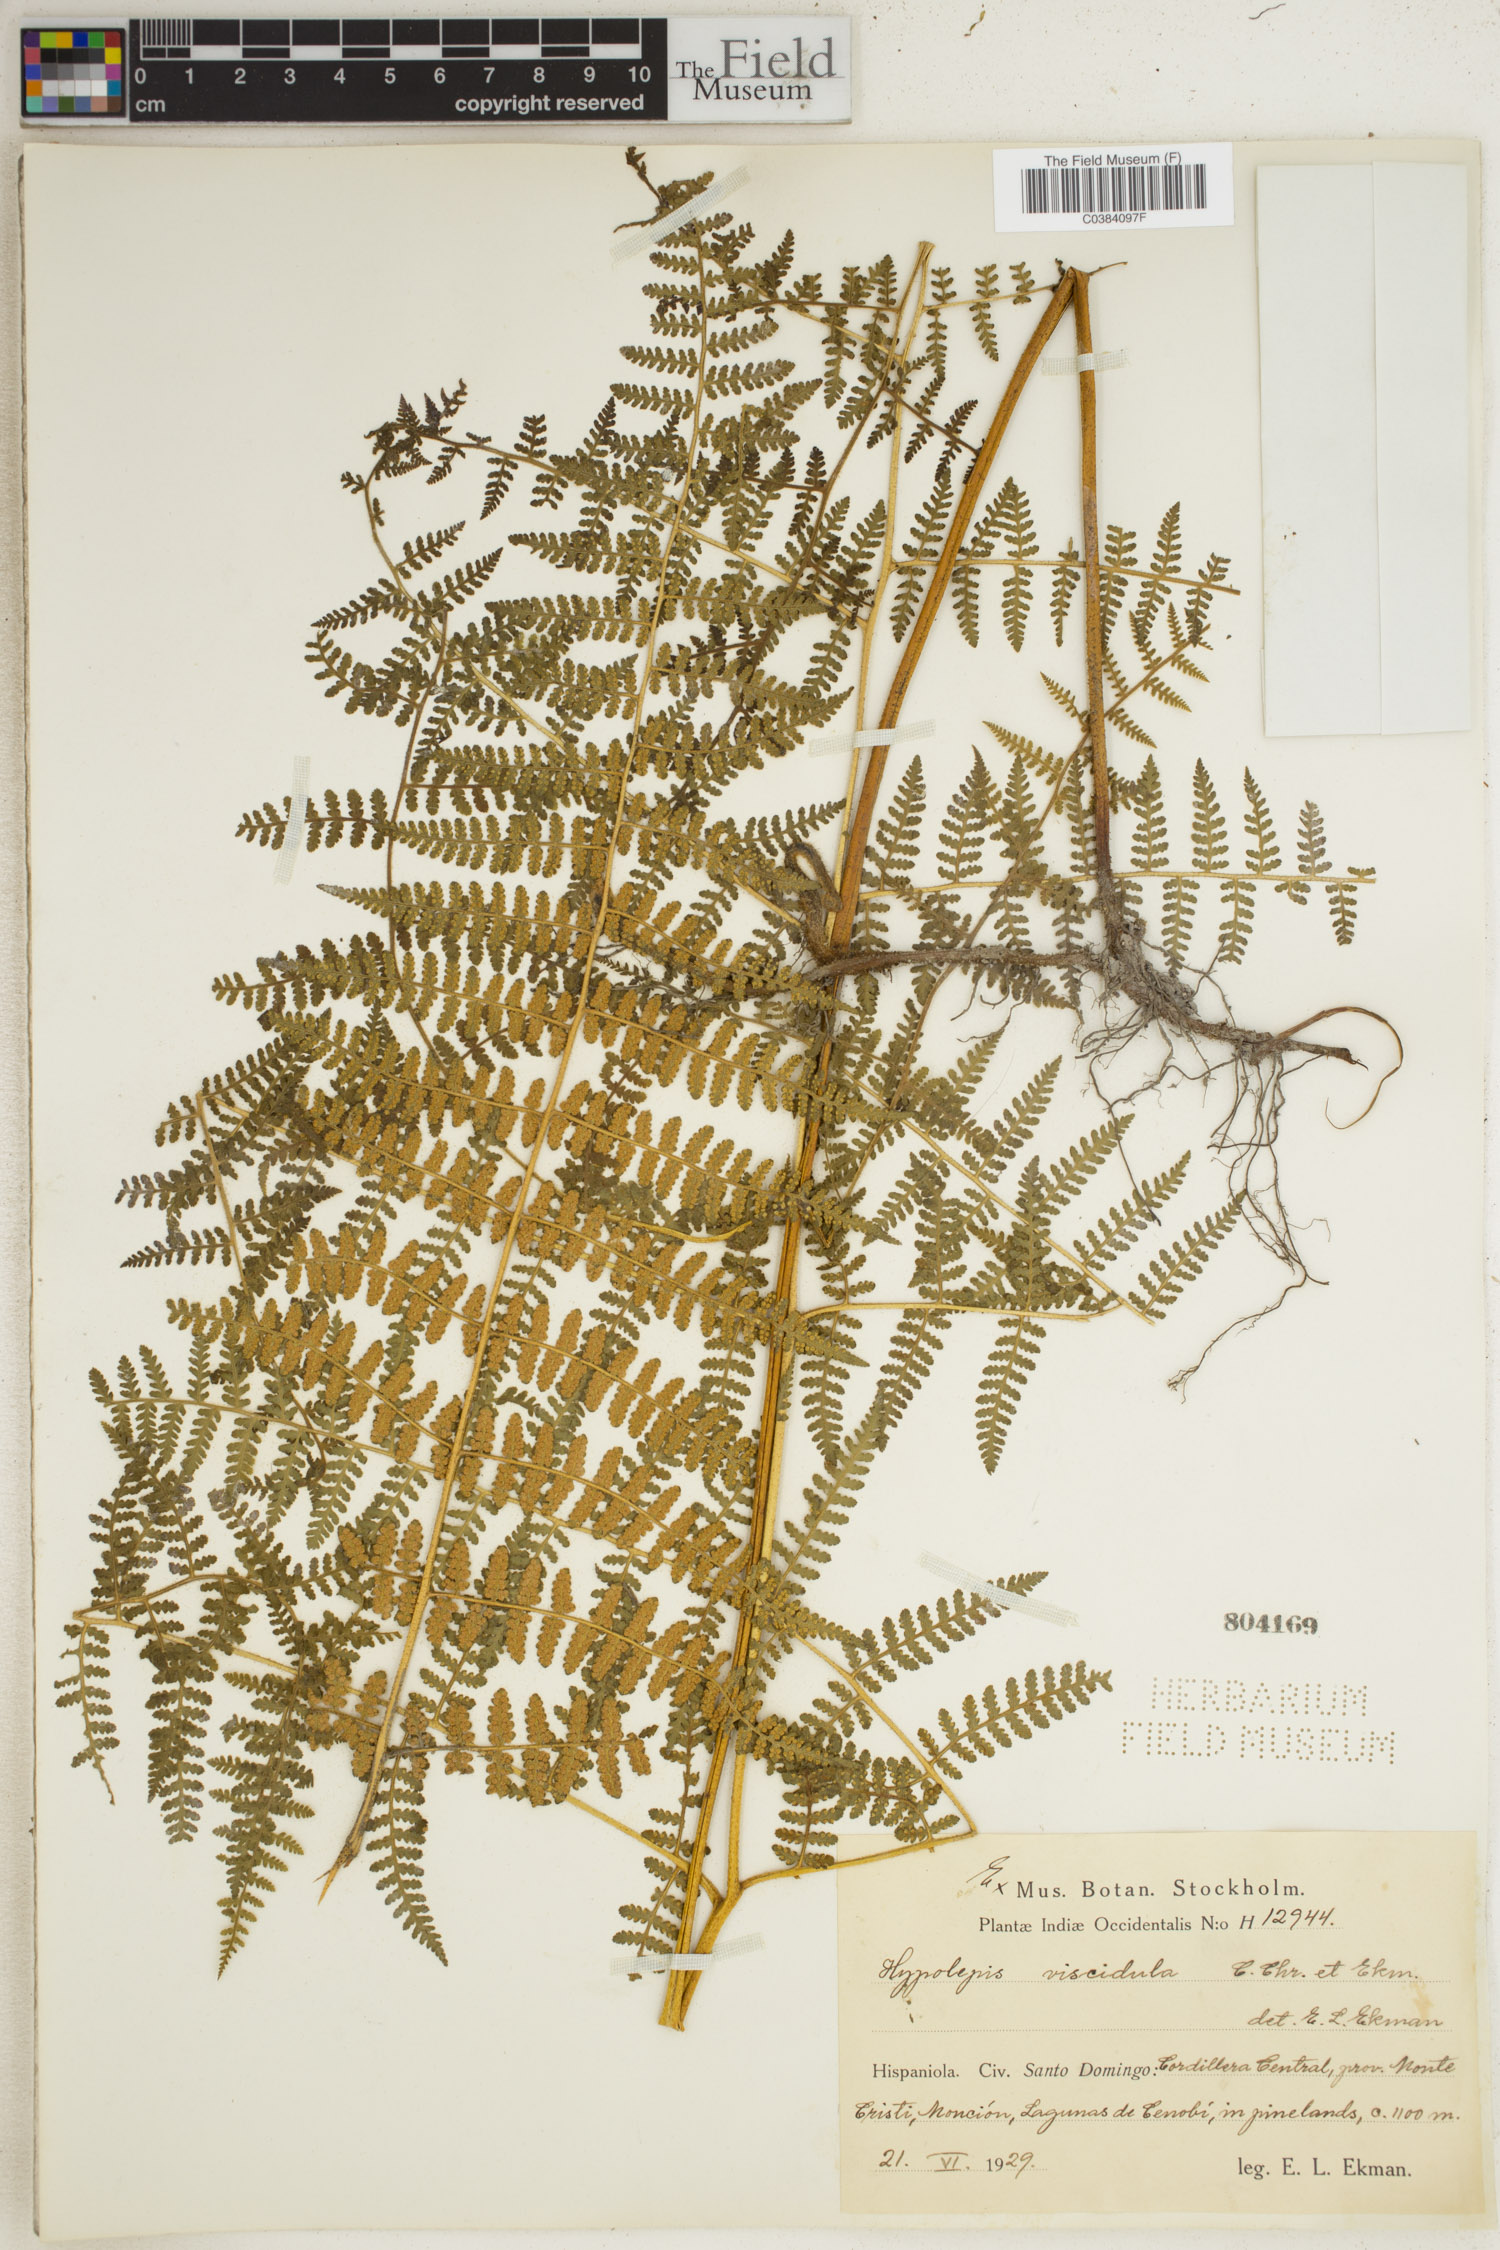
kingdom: Plantae
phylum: Tracheophyta
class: Polypodiopsida
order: Polypodiales
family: Dennstaedtiaceae
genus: Hypolepis
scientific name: Hypolepis
